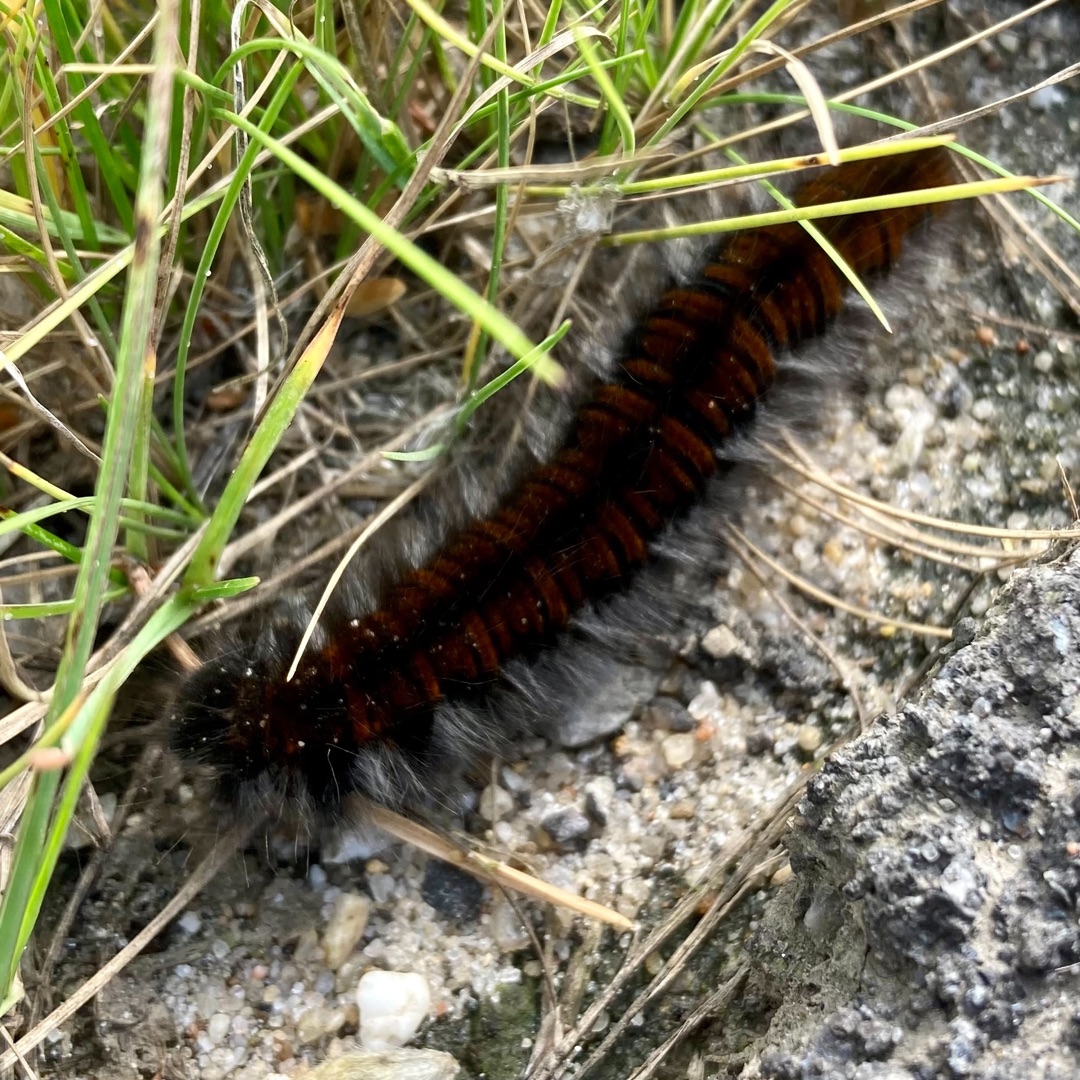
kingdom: Animalia
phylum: Arthropoda
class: Insecta
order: Lepidoptera
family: Lasiocampidae
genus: Macrothylacia
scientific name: Macrothylacia rubi
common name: Brombærspinder
